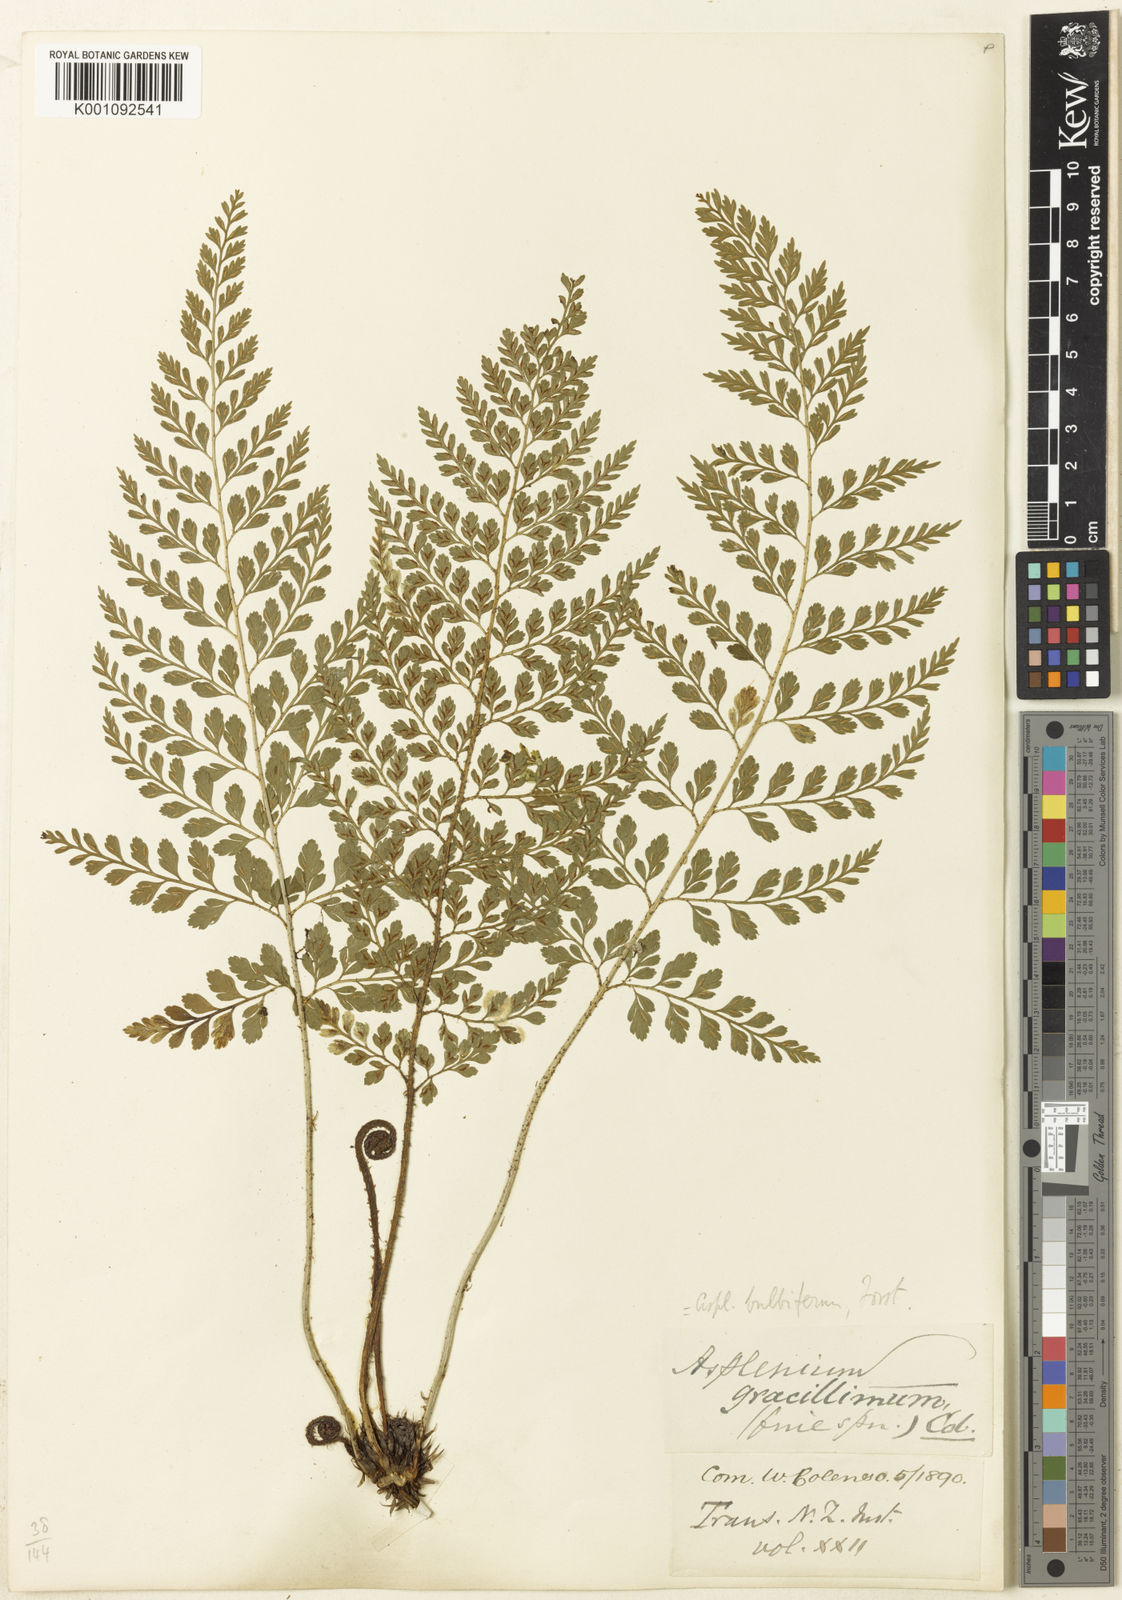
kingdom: Plantae
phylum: Tracheophyta
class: Polypodiopsida
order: Polypodiales
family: Aspleniaceae
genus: Asplenium
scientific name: Asplenium bulbiferum
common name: Mother fern
